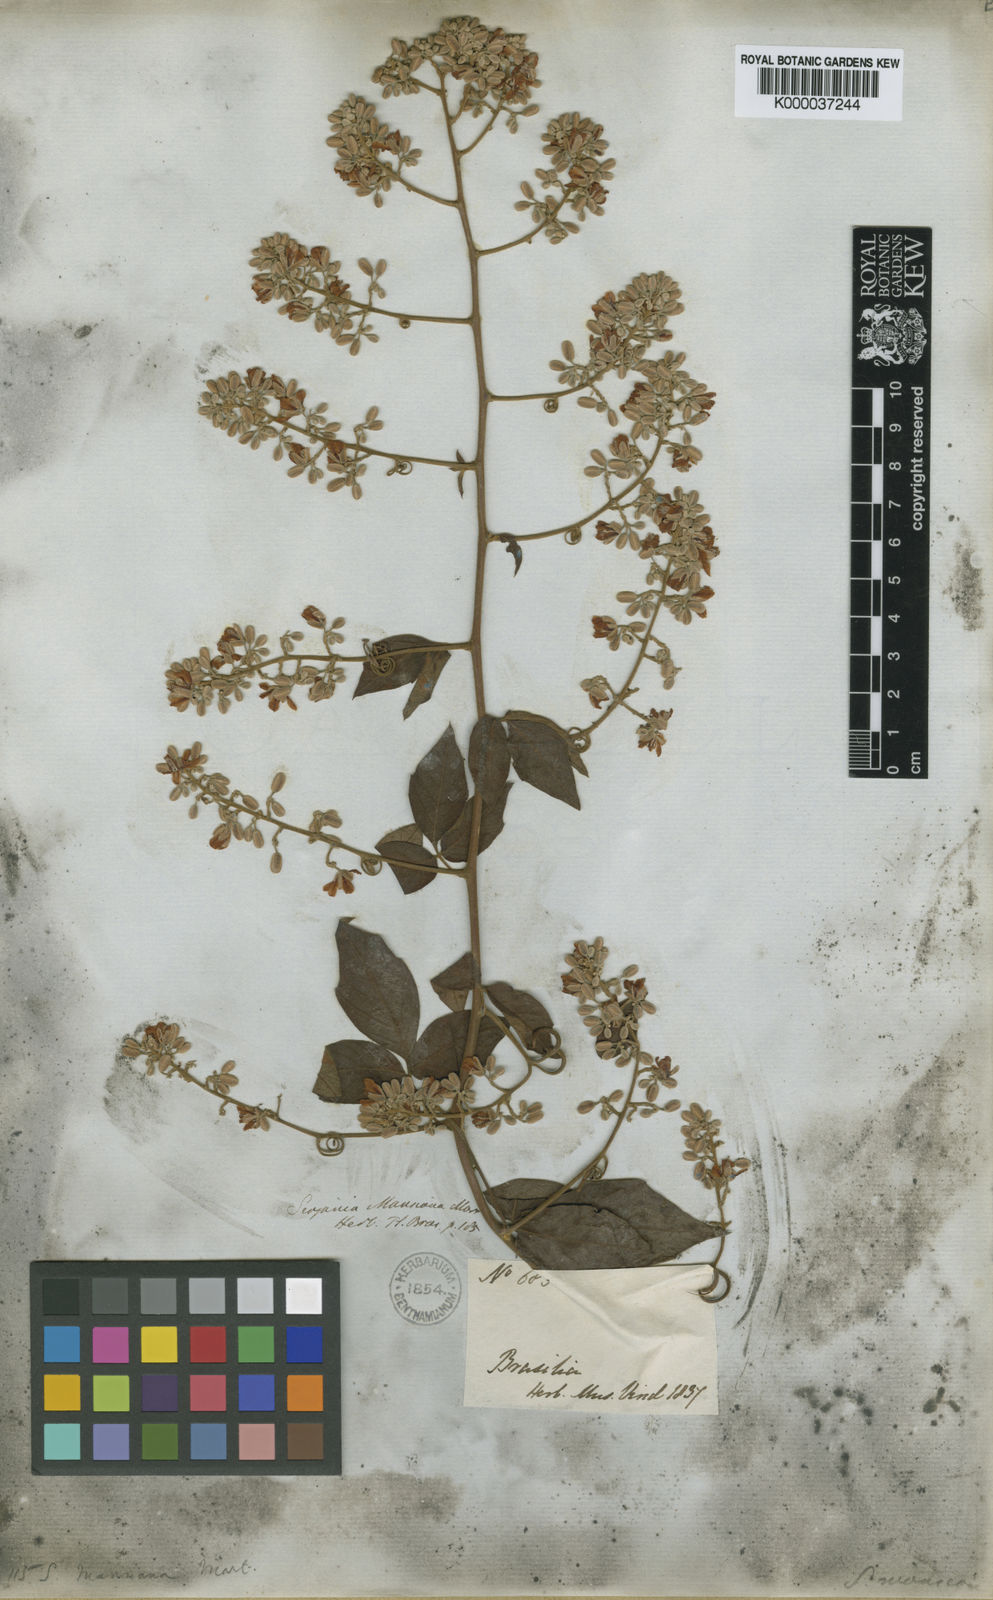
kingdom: Plantae
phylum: Tracheophyta
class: Magnoliopsida
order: Sapindales
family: Sapindaceae
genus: Serjania
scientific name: Serjania mansiana
